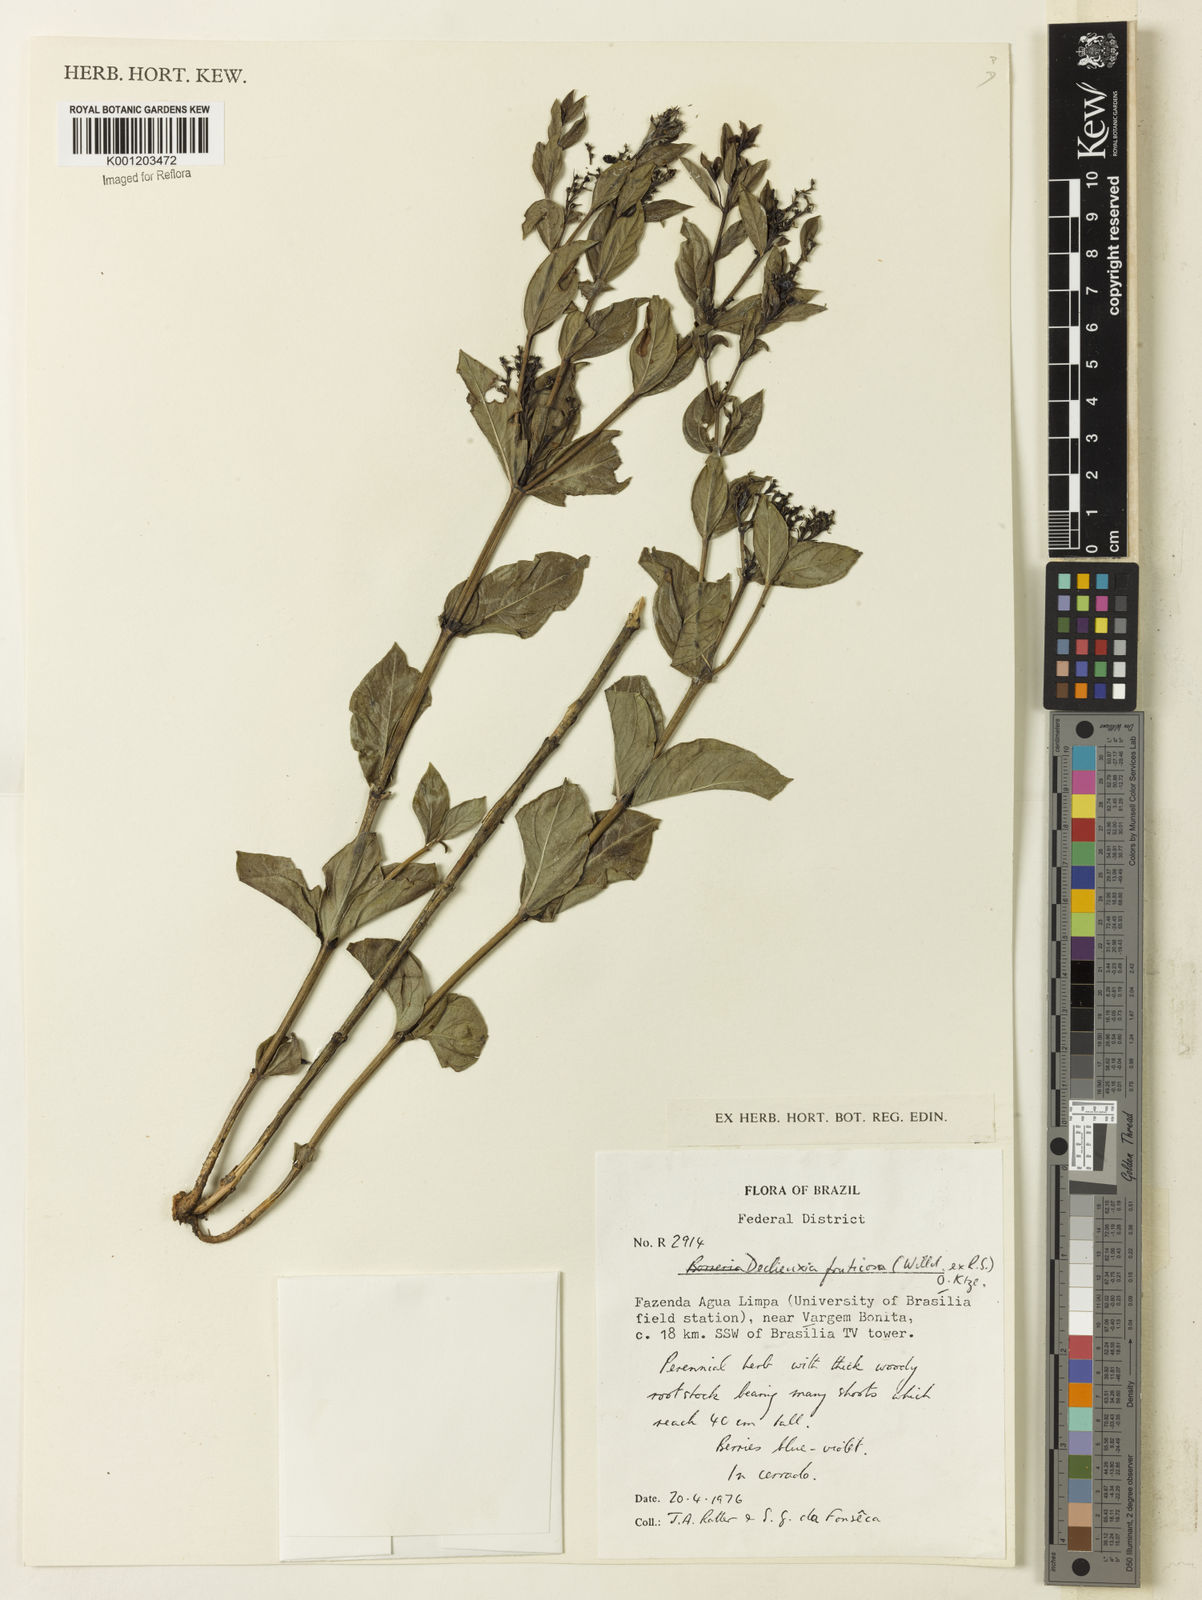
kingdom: Plantae
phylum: Tracheophyta
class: Magnoliopsida
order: Gentianales
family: Rubiaceae
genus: Declieuxia
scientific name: Declieuxia fruticosa
